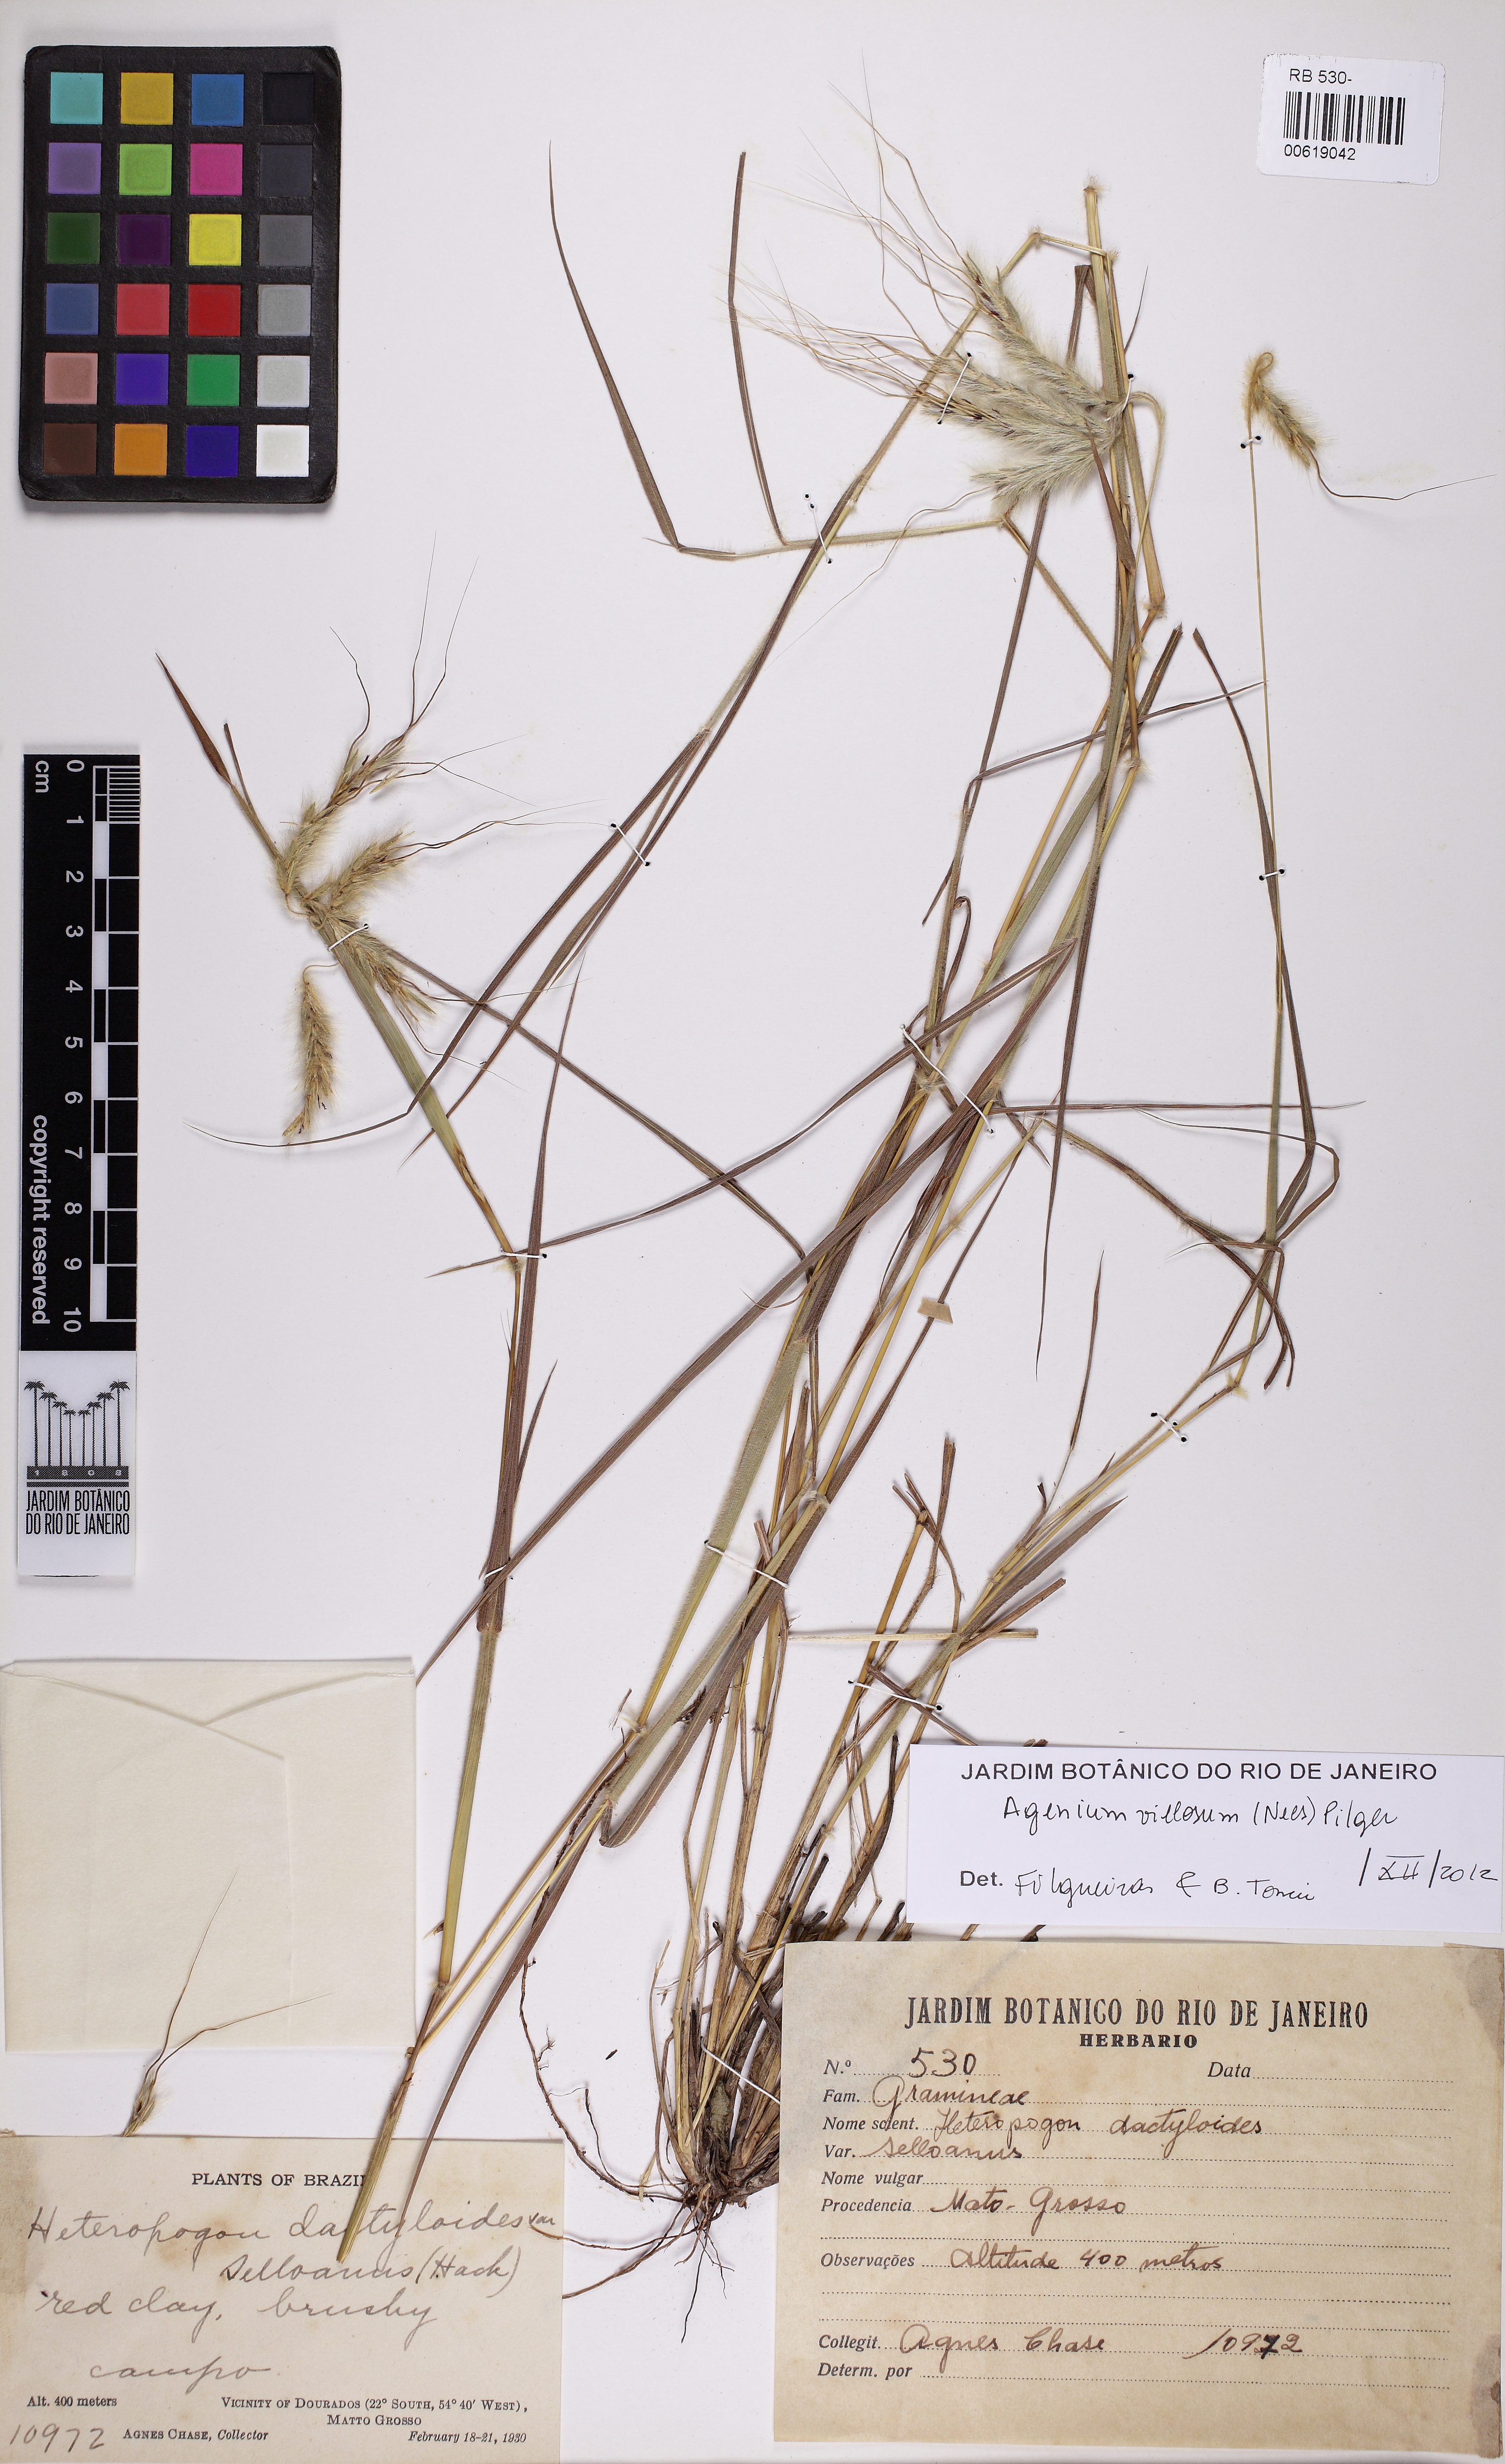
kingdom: Plantae
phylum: Tracheophyta
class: Liliopsida
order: Poales
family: Poaceae
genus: Agenium
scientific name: Agenium villosum
